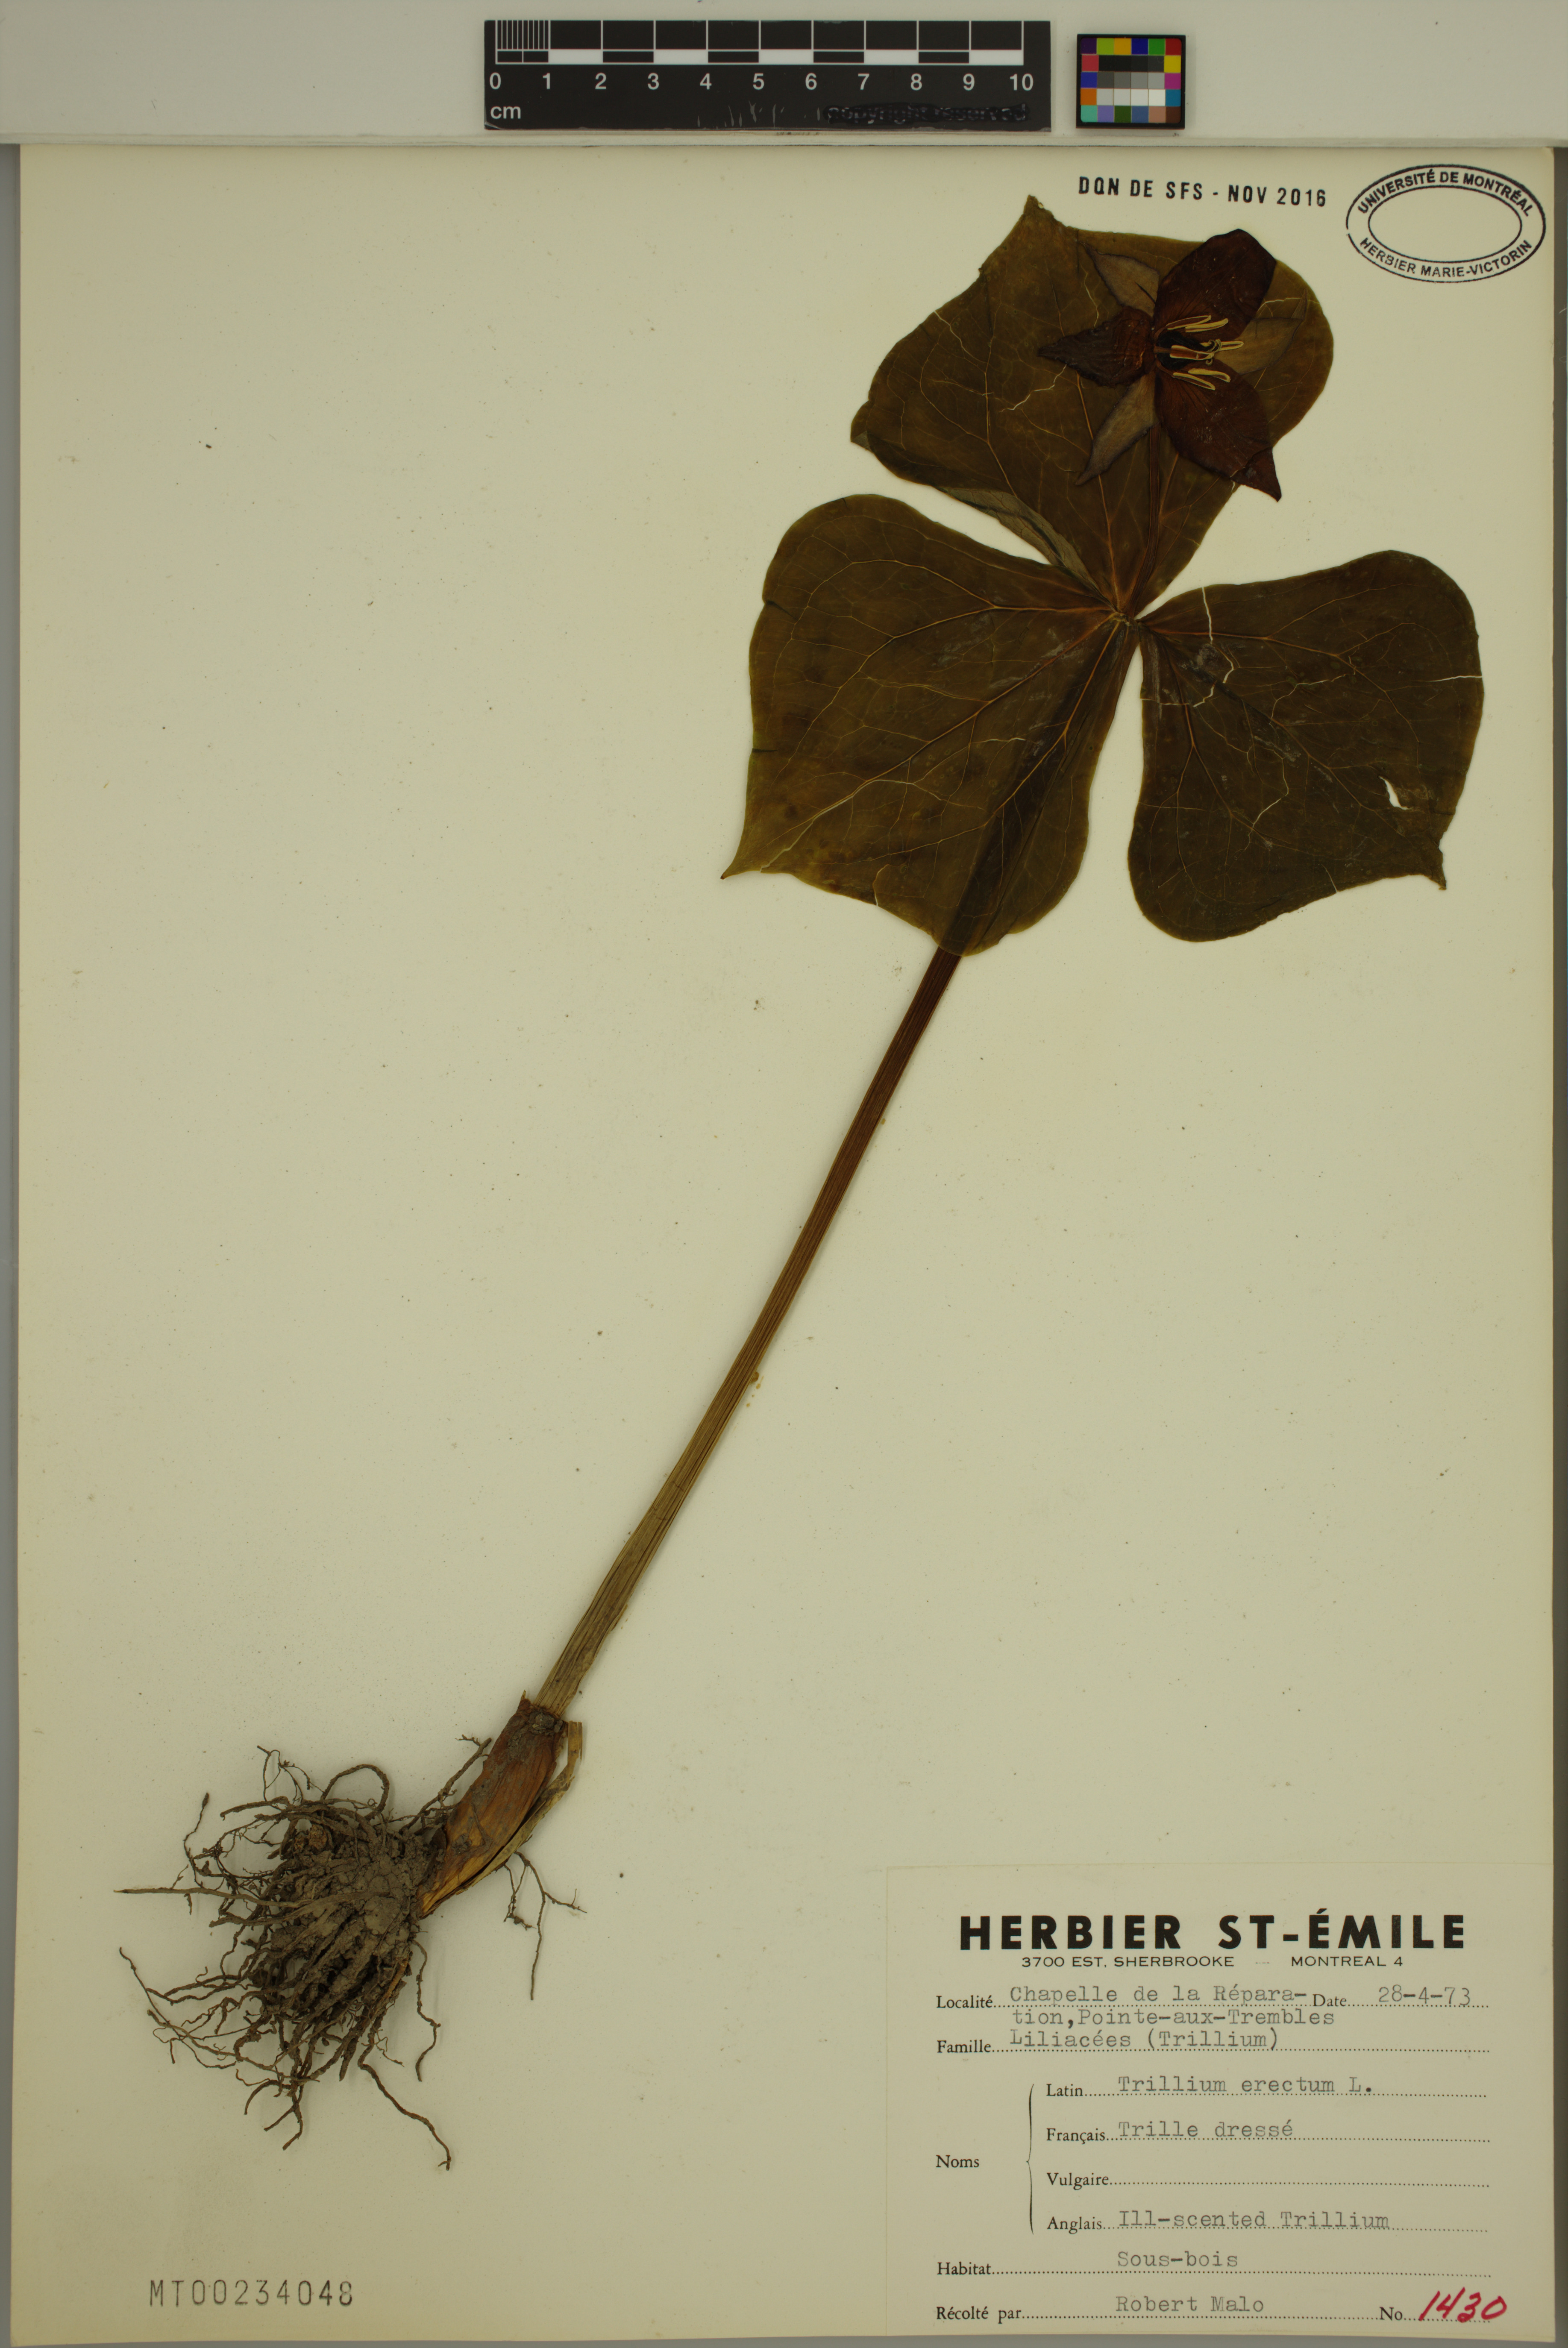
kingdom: Plantae
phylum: Tracheophyta
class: Liliopsida
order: Liliales
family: Melanthiaceae
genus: Trillium
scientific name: Trillium erectum
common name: Purple trillium
